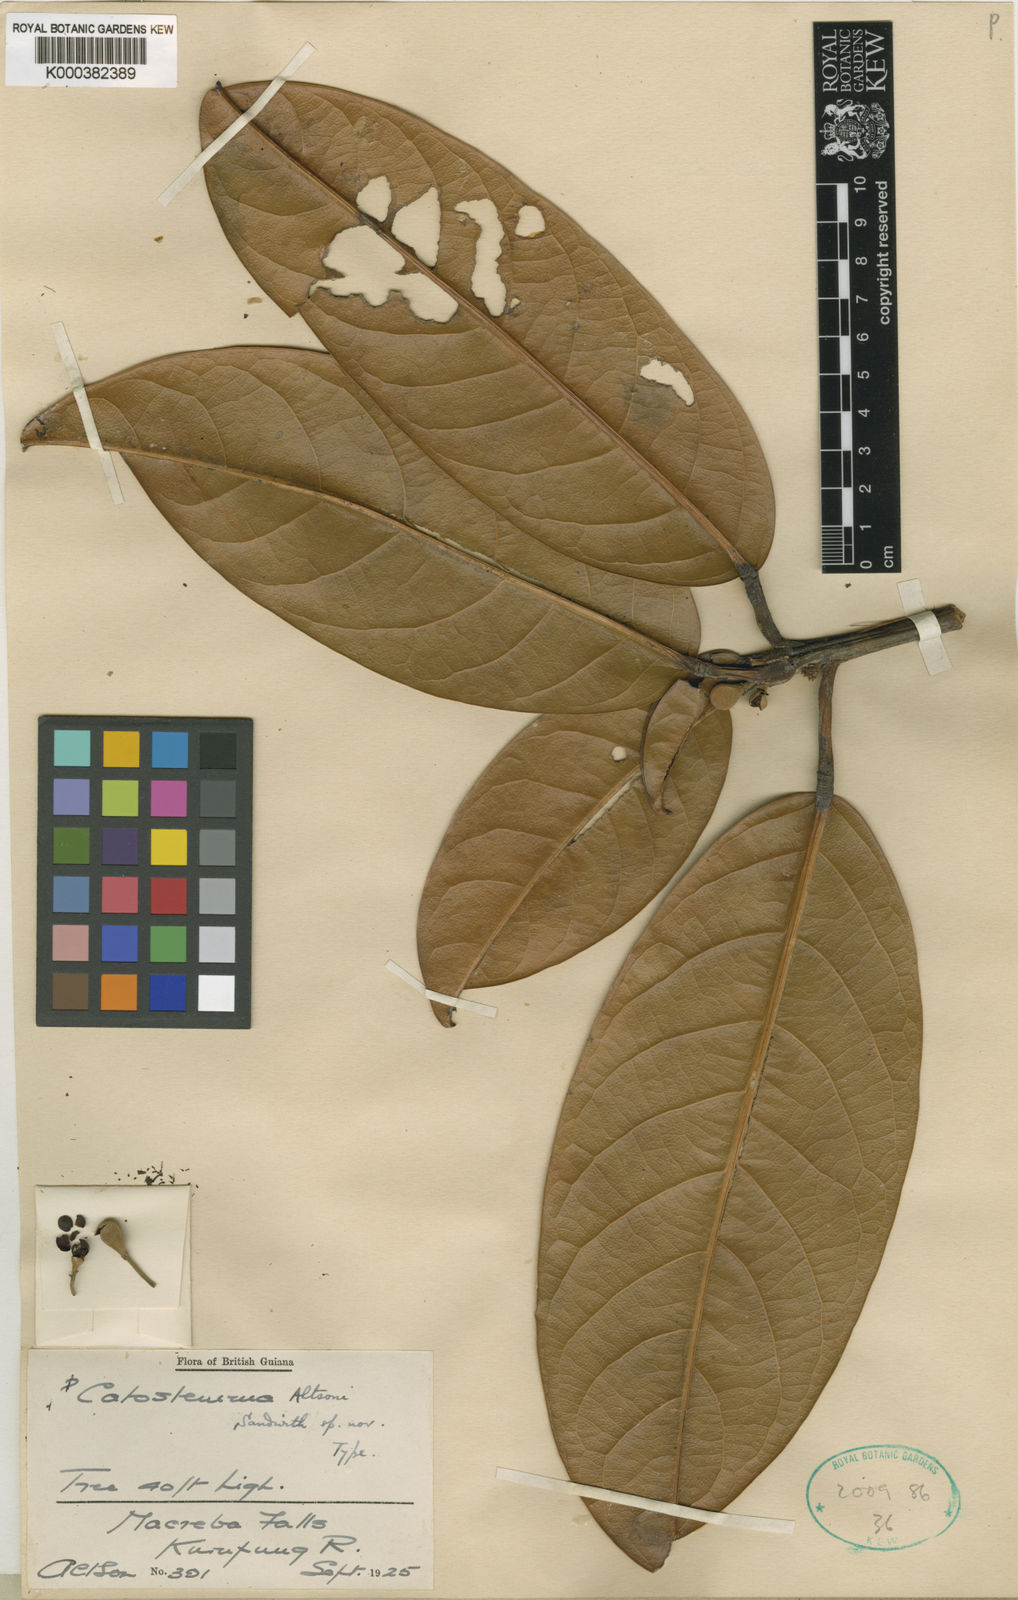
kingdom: Plantae
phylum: Tracheophyta
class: Magnoliopsida
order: Malvales
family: Malvaceae
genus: Catostemma
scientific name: Catostemma altsonii
